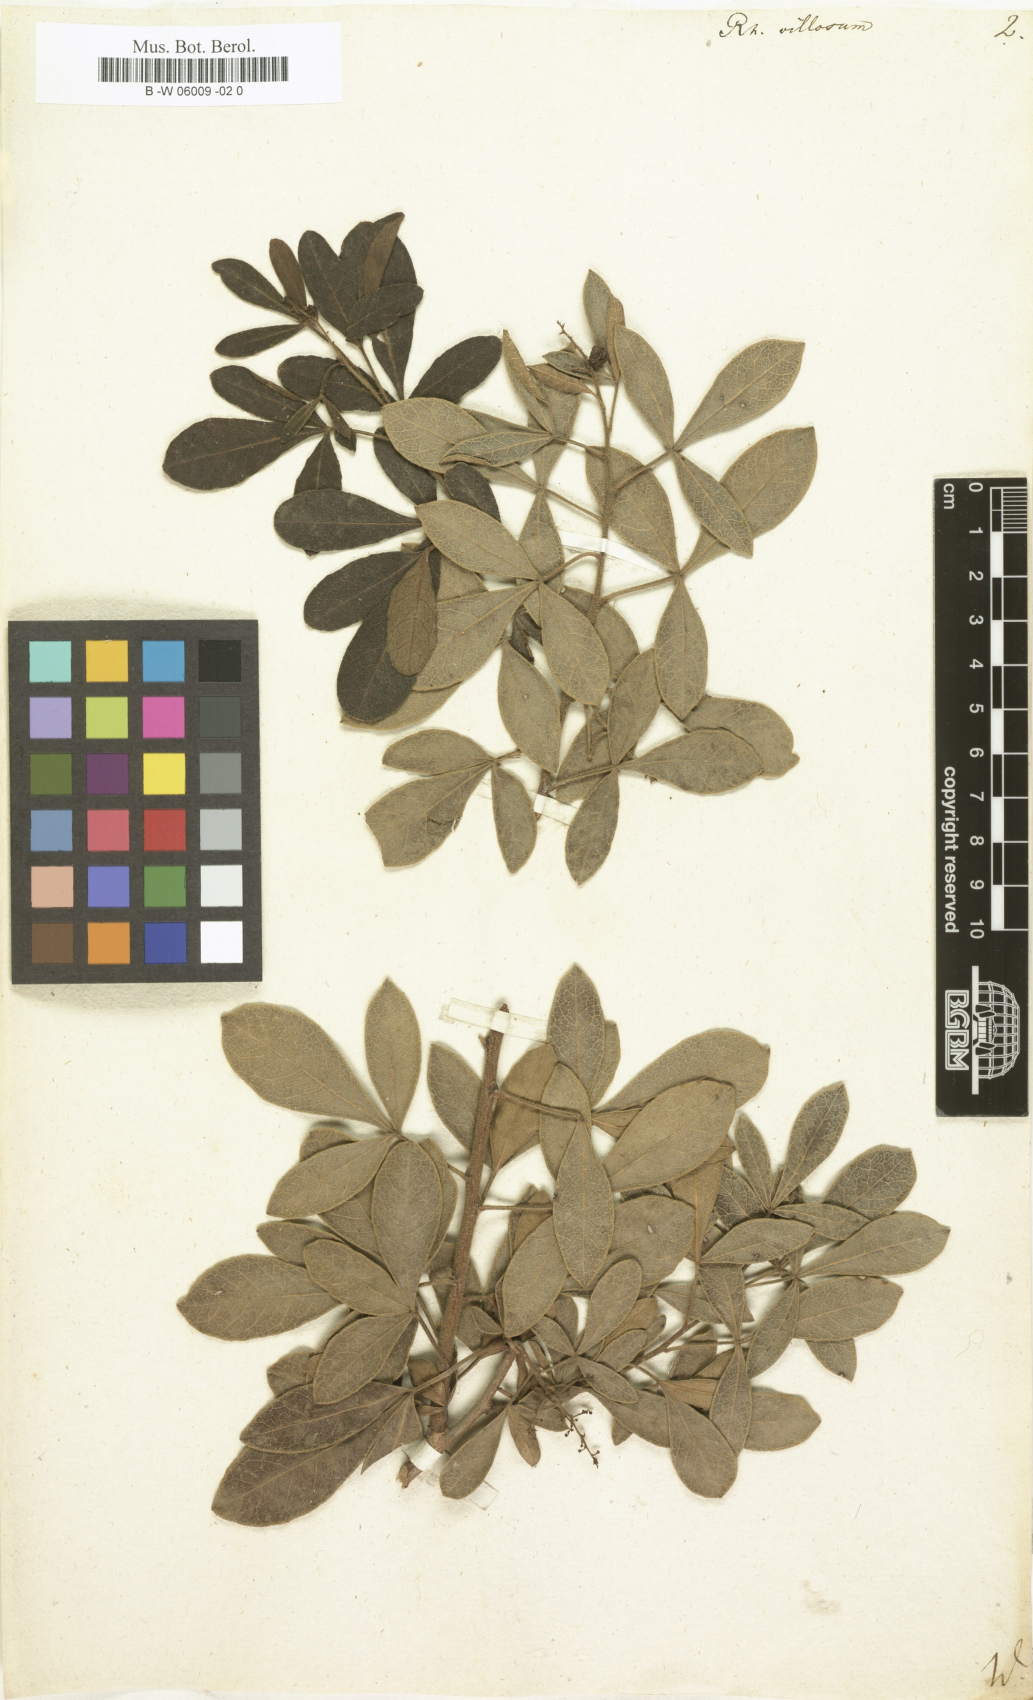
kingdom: Plantae
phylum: Tracheophyta
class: Magnoliopsida
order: Sapindales
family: Anacardiaceae
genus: Searsia
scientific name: Searsia
